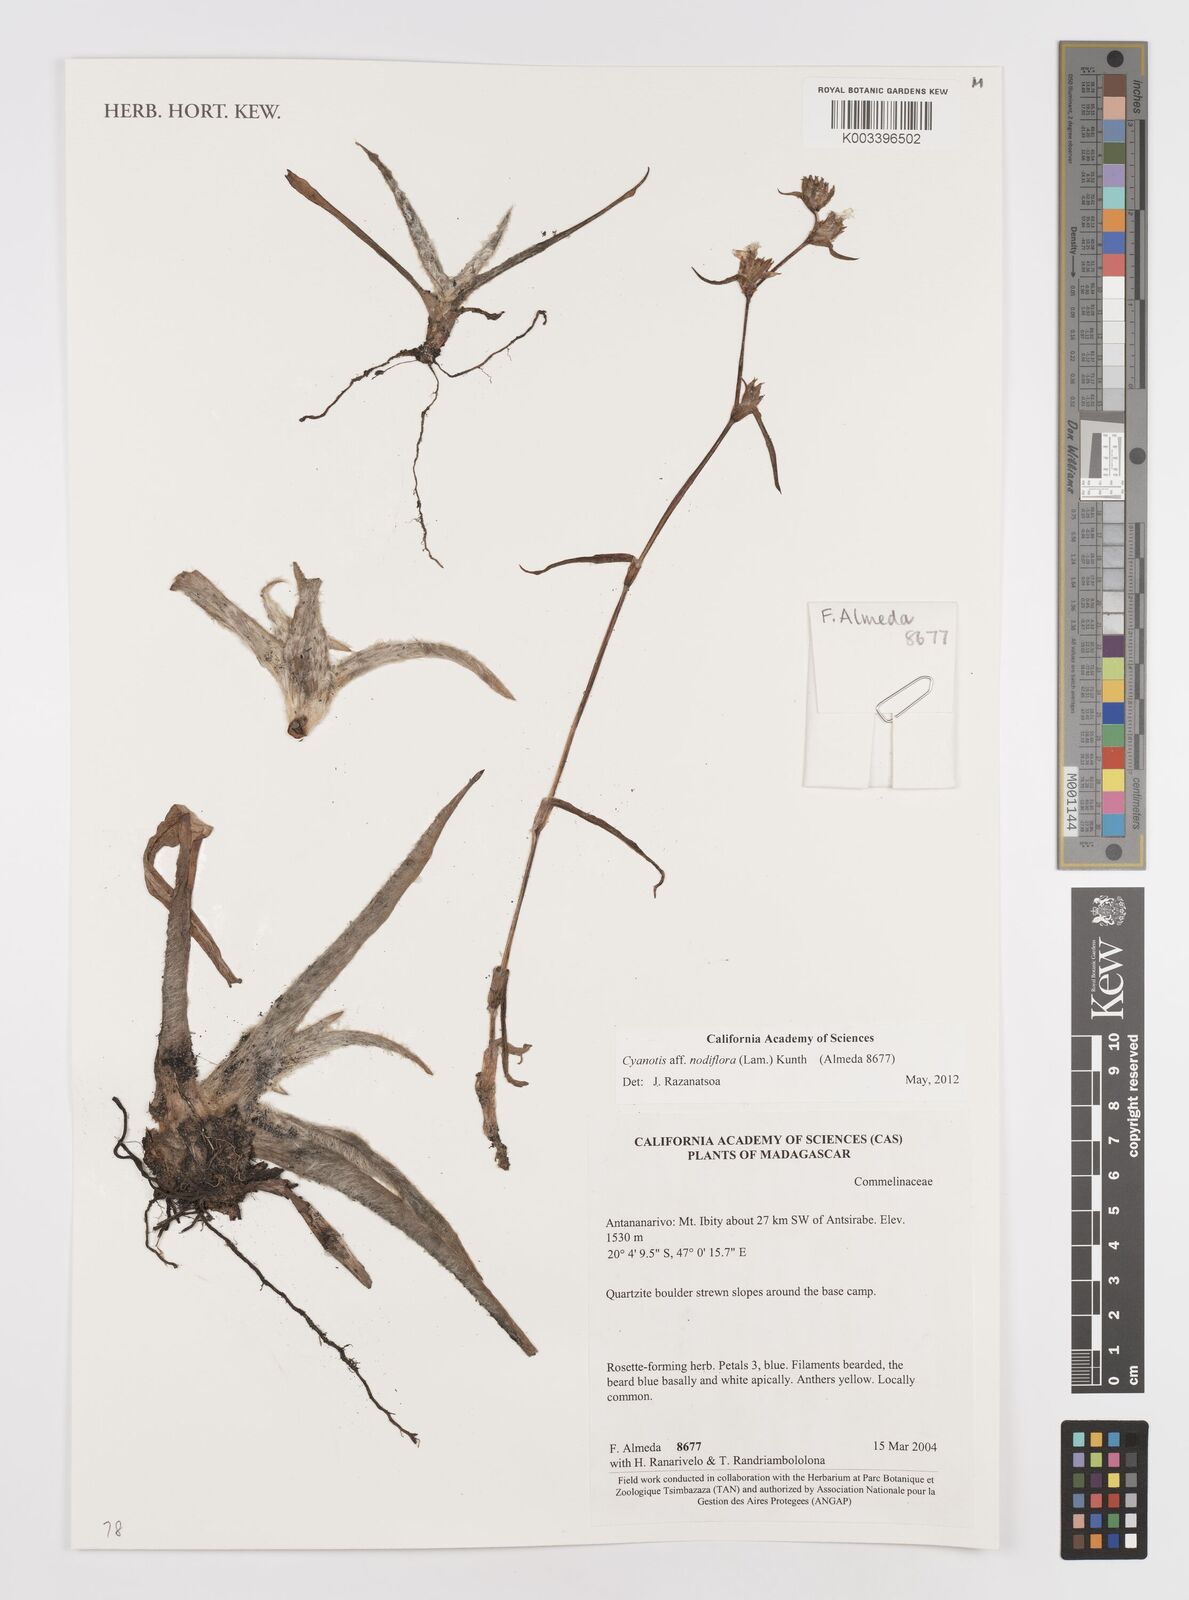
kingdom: Plantae
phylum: Tracheophyta
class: Liliopsida
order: Commelinales
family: Commelinaceae
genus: Cyanotis
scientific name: Cyanotis speciosa
